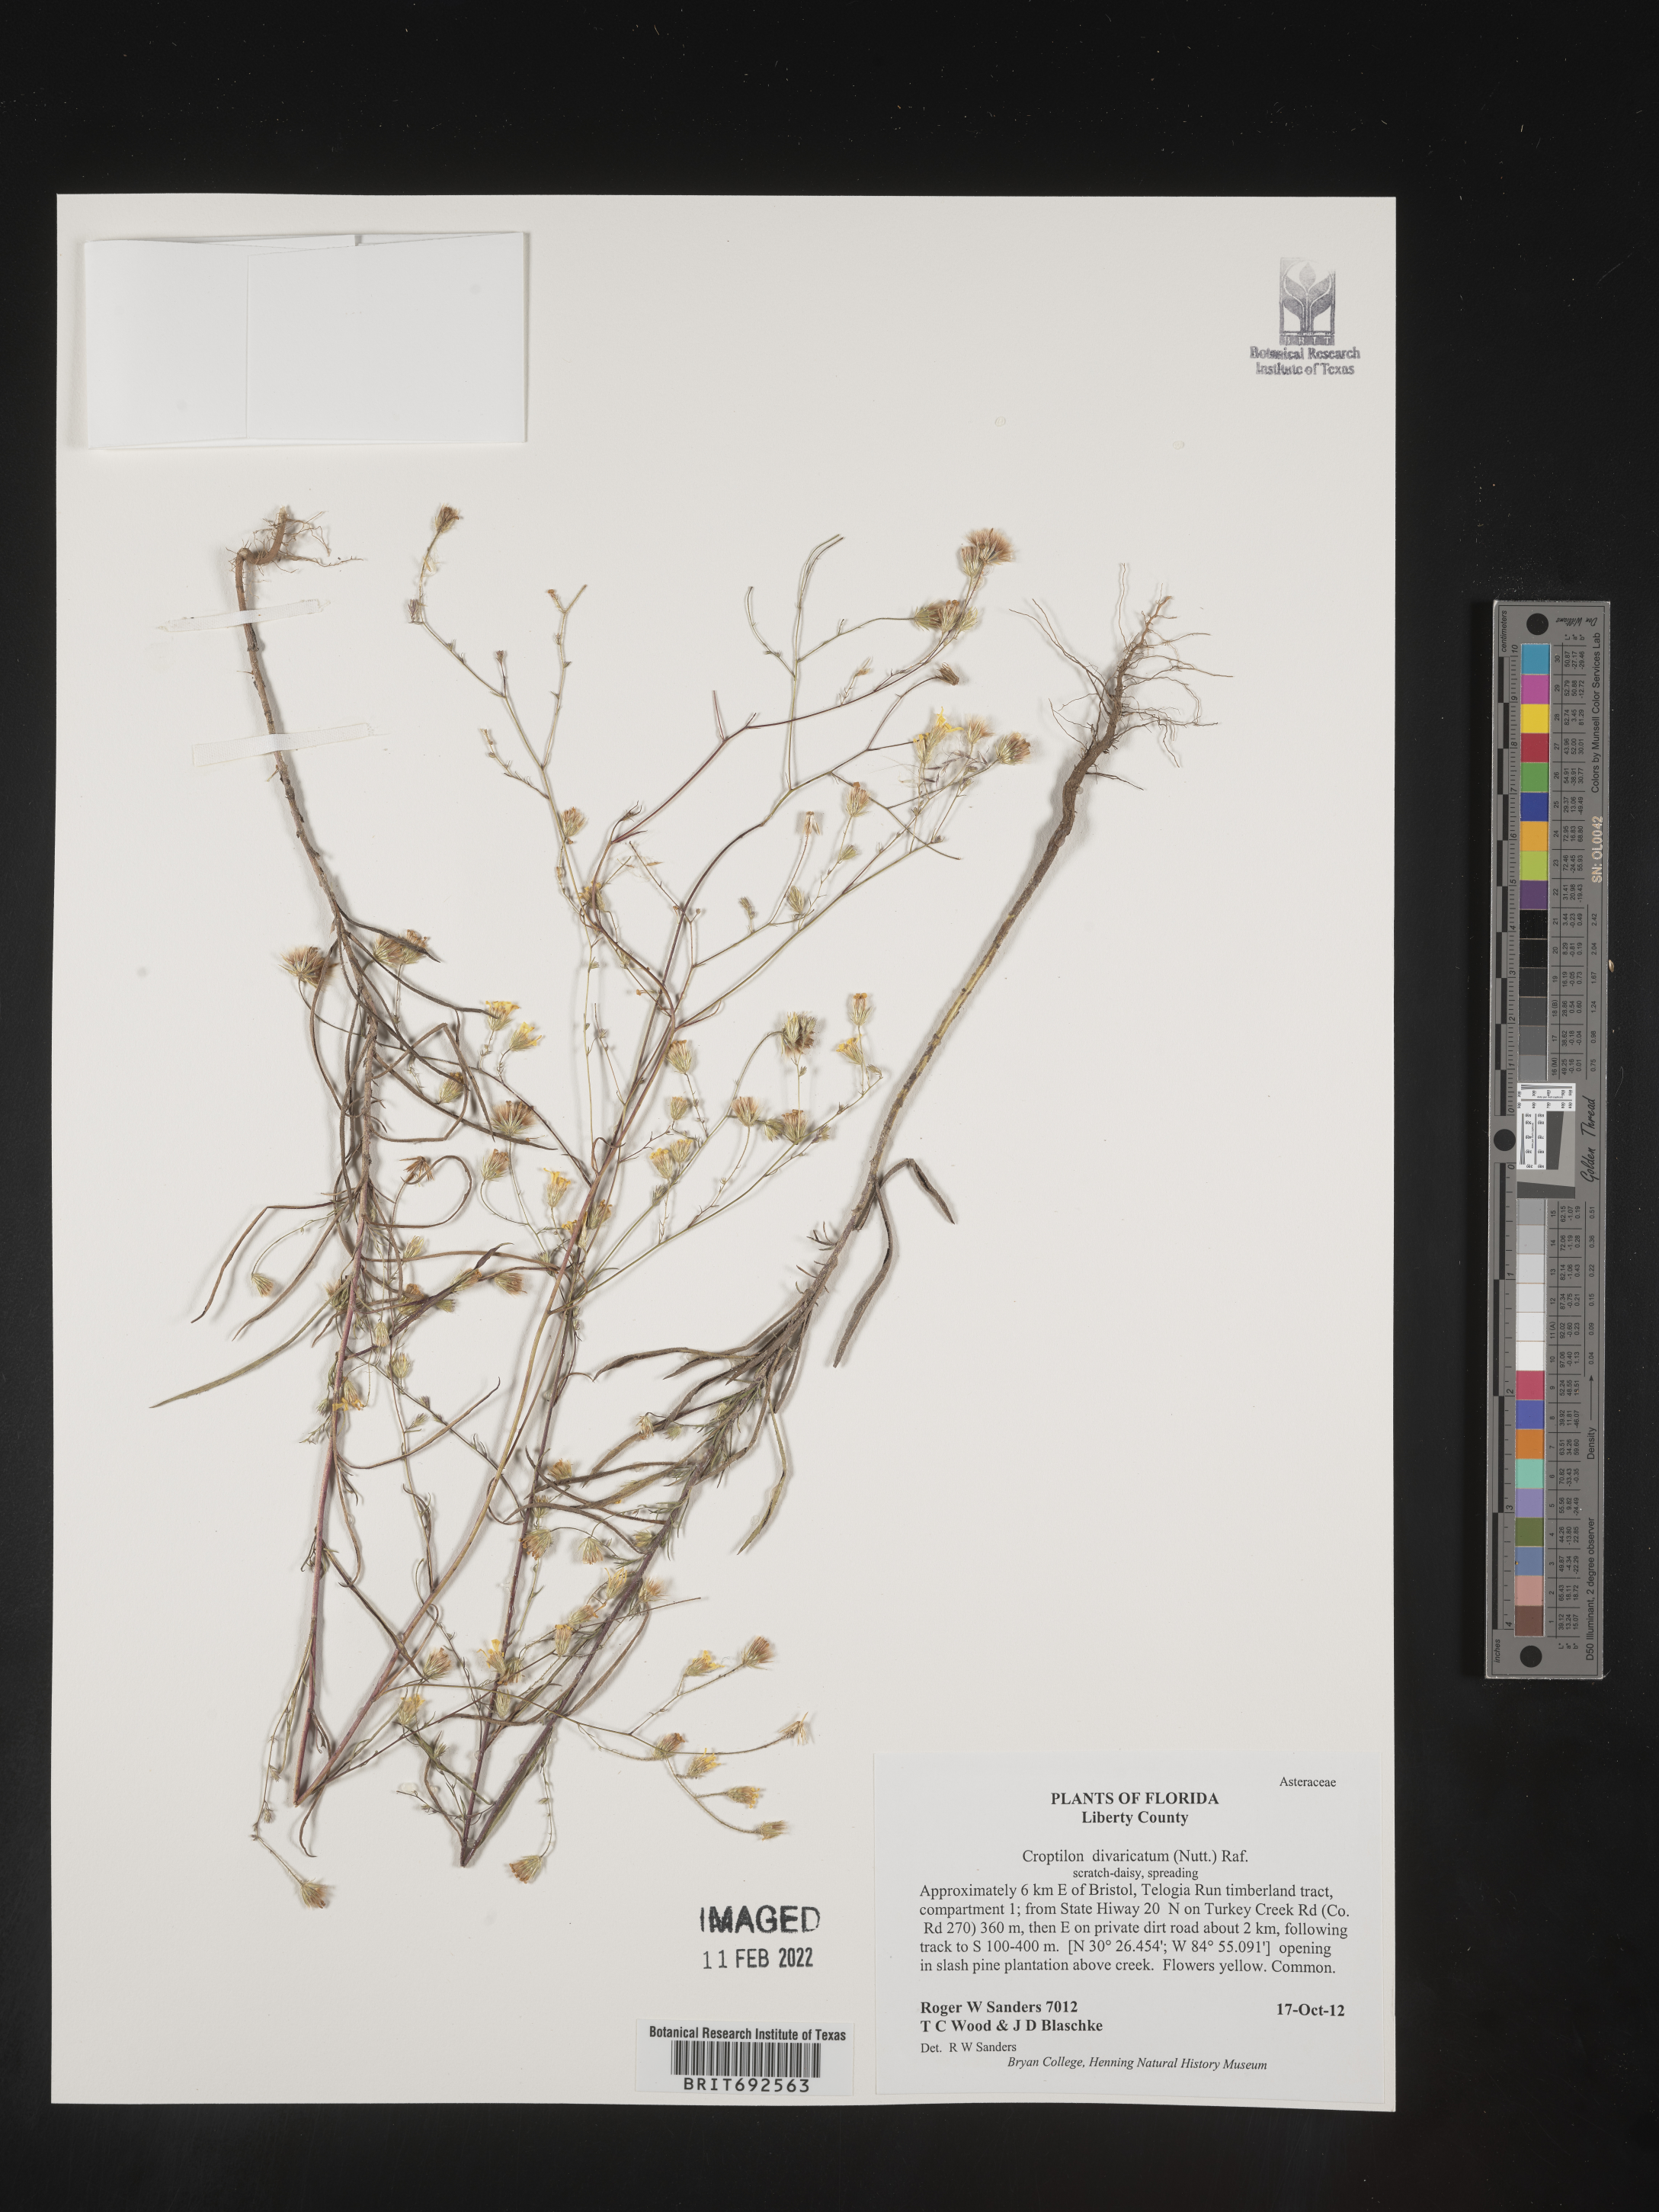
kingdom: Plantae
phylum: Tracheophyta
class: Magnoliopsida
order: Asterales
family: Asteraceae
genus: Croptilon
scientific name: Croptilon divaricatum
